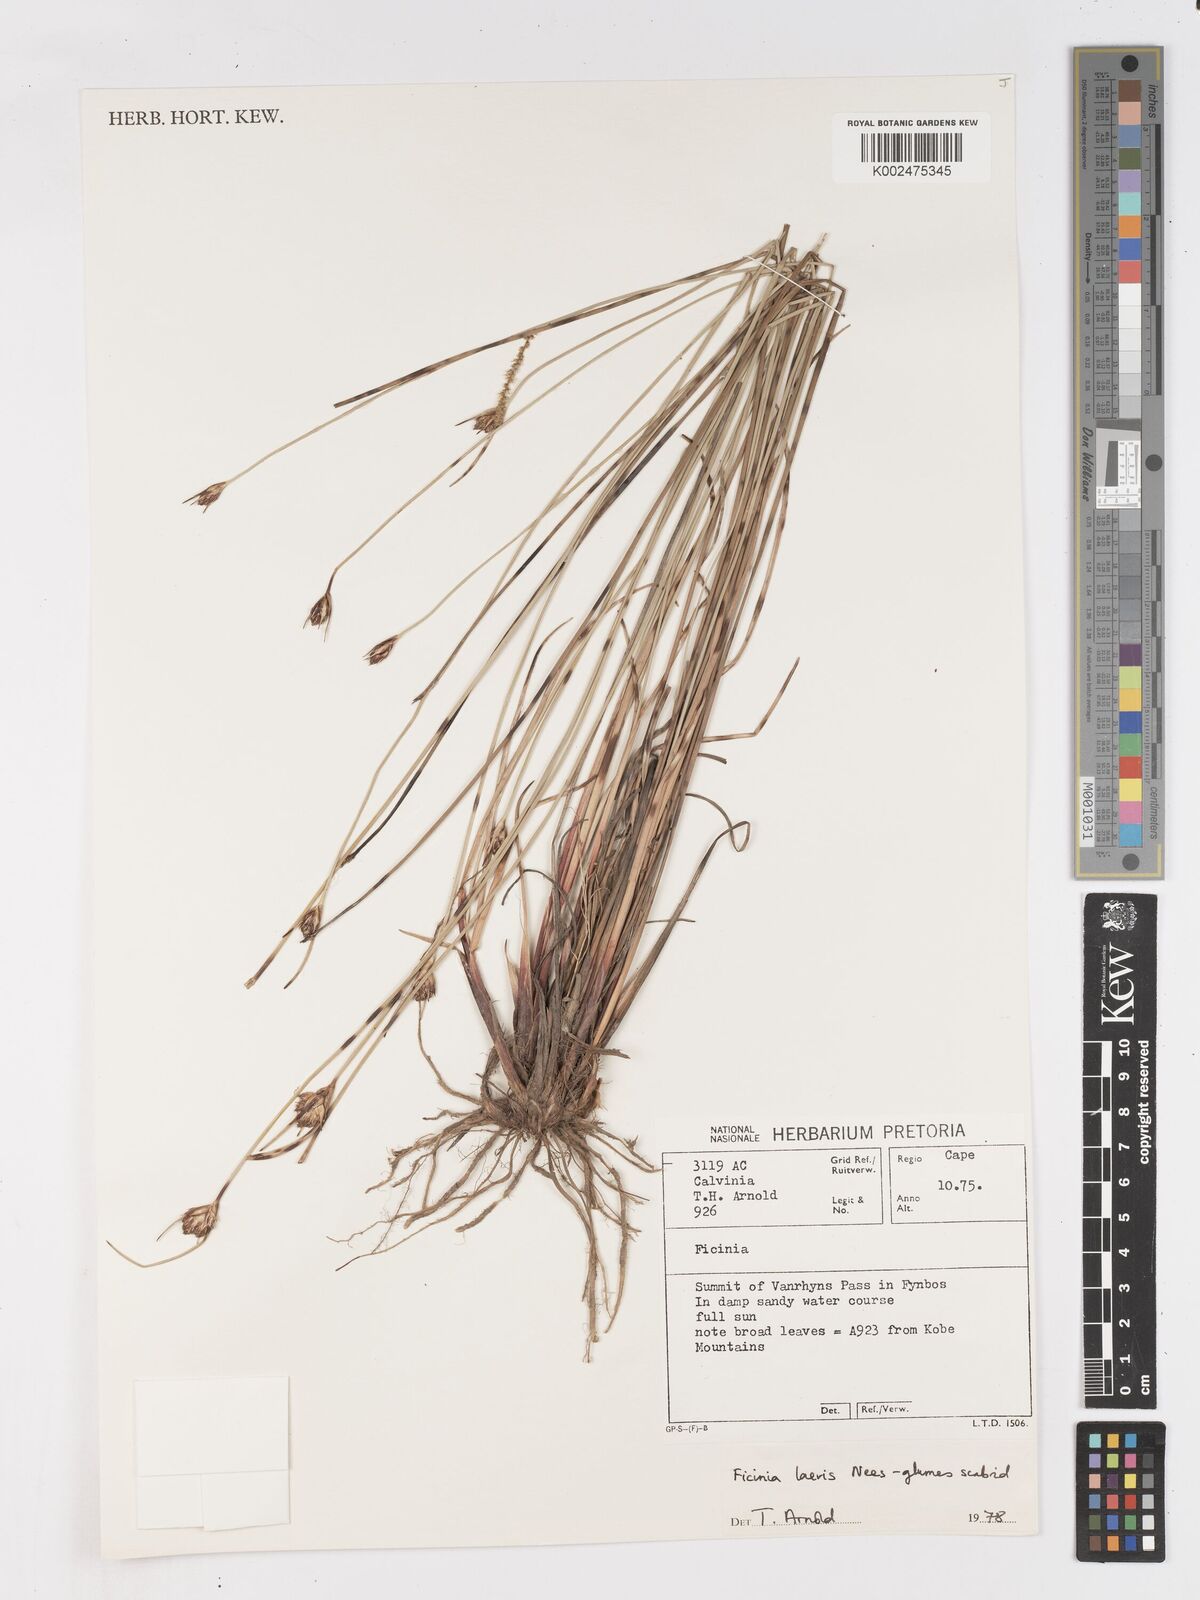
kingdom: Plantae
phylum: Tracheophyta
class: Liliopsida
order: Poales
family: Cyperaceae
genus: Ficinia
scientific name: Ficinia laevis
